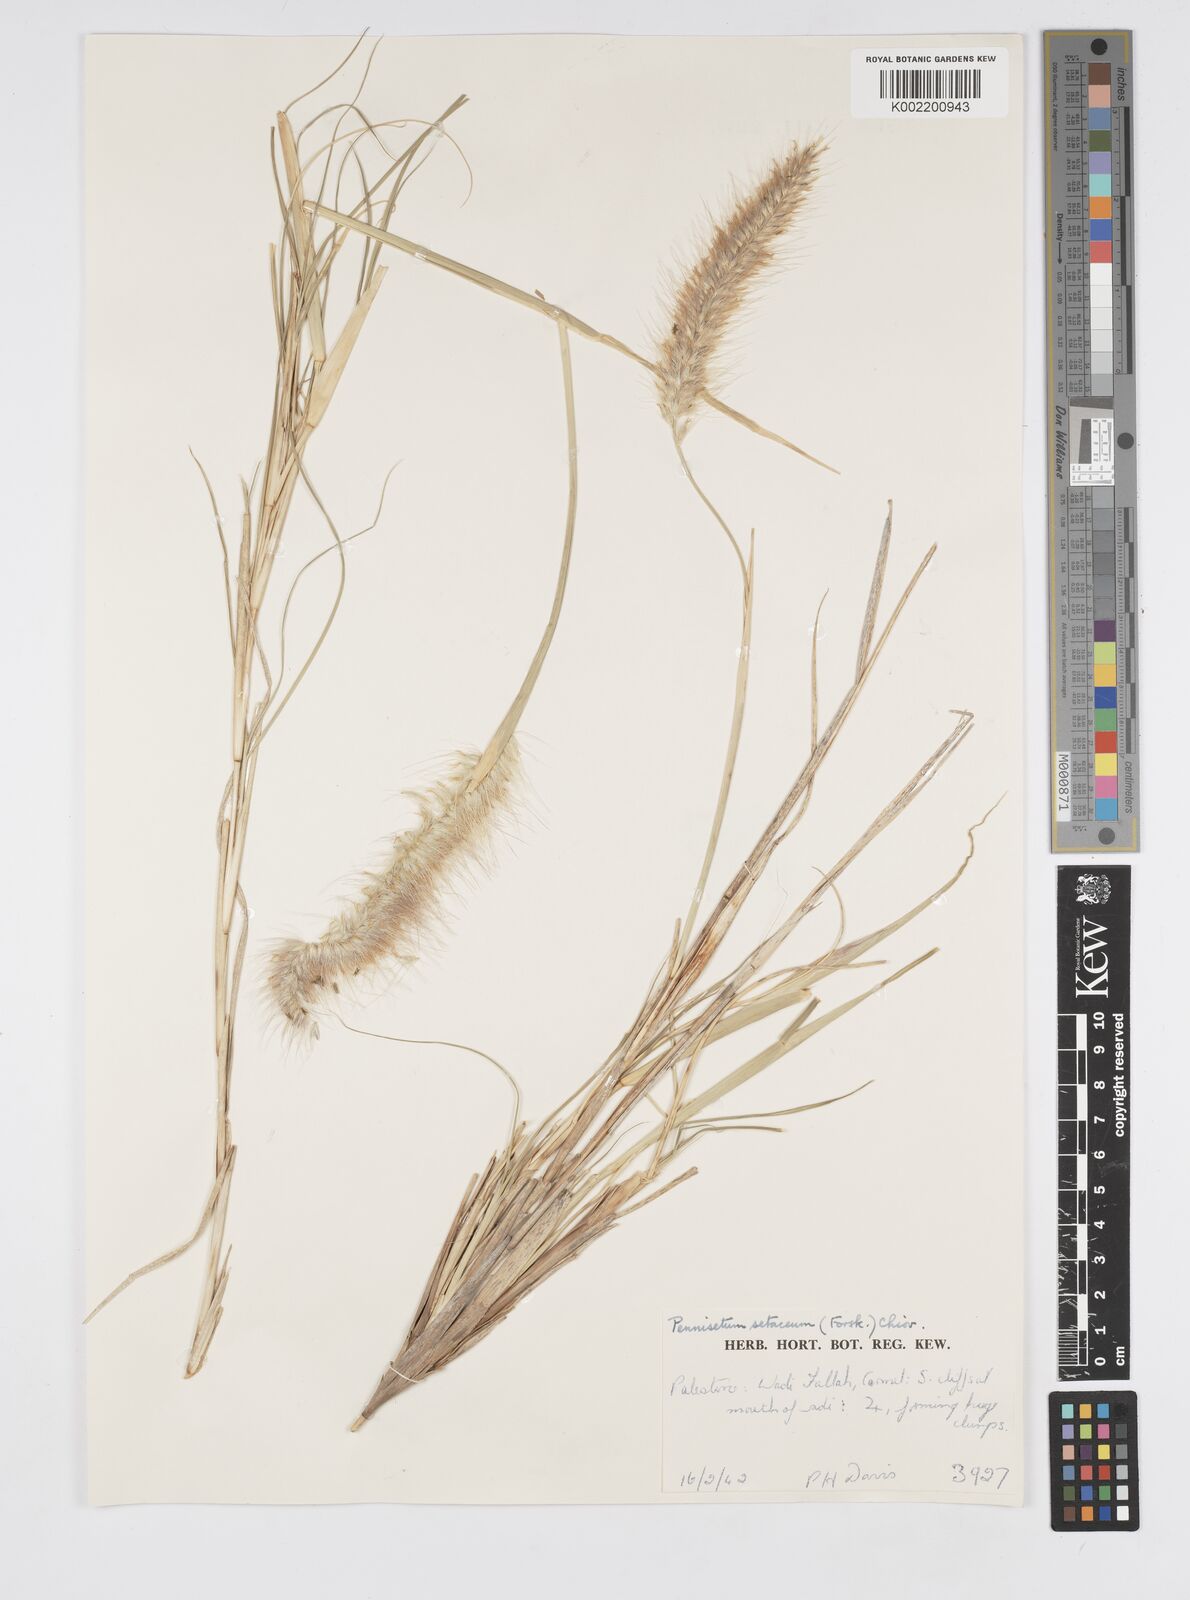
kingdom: Plantae
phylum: Tracheophyta
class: Liliopsida
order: Poales
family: Poaceae
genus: Cenchrus
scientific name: Cenchrus setaceus
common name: Crimson fountaingrass
